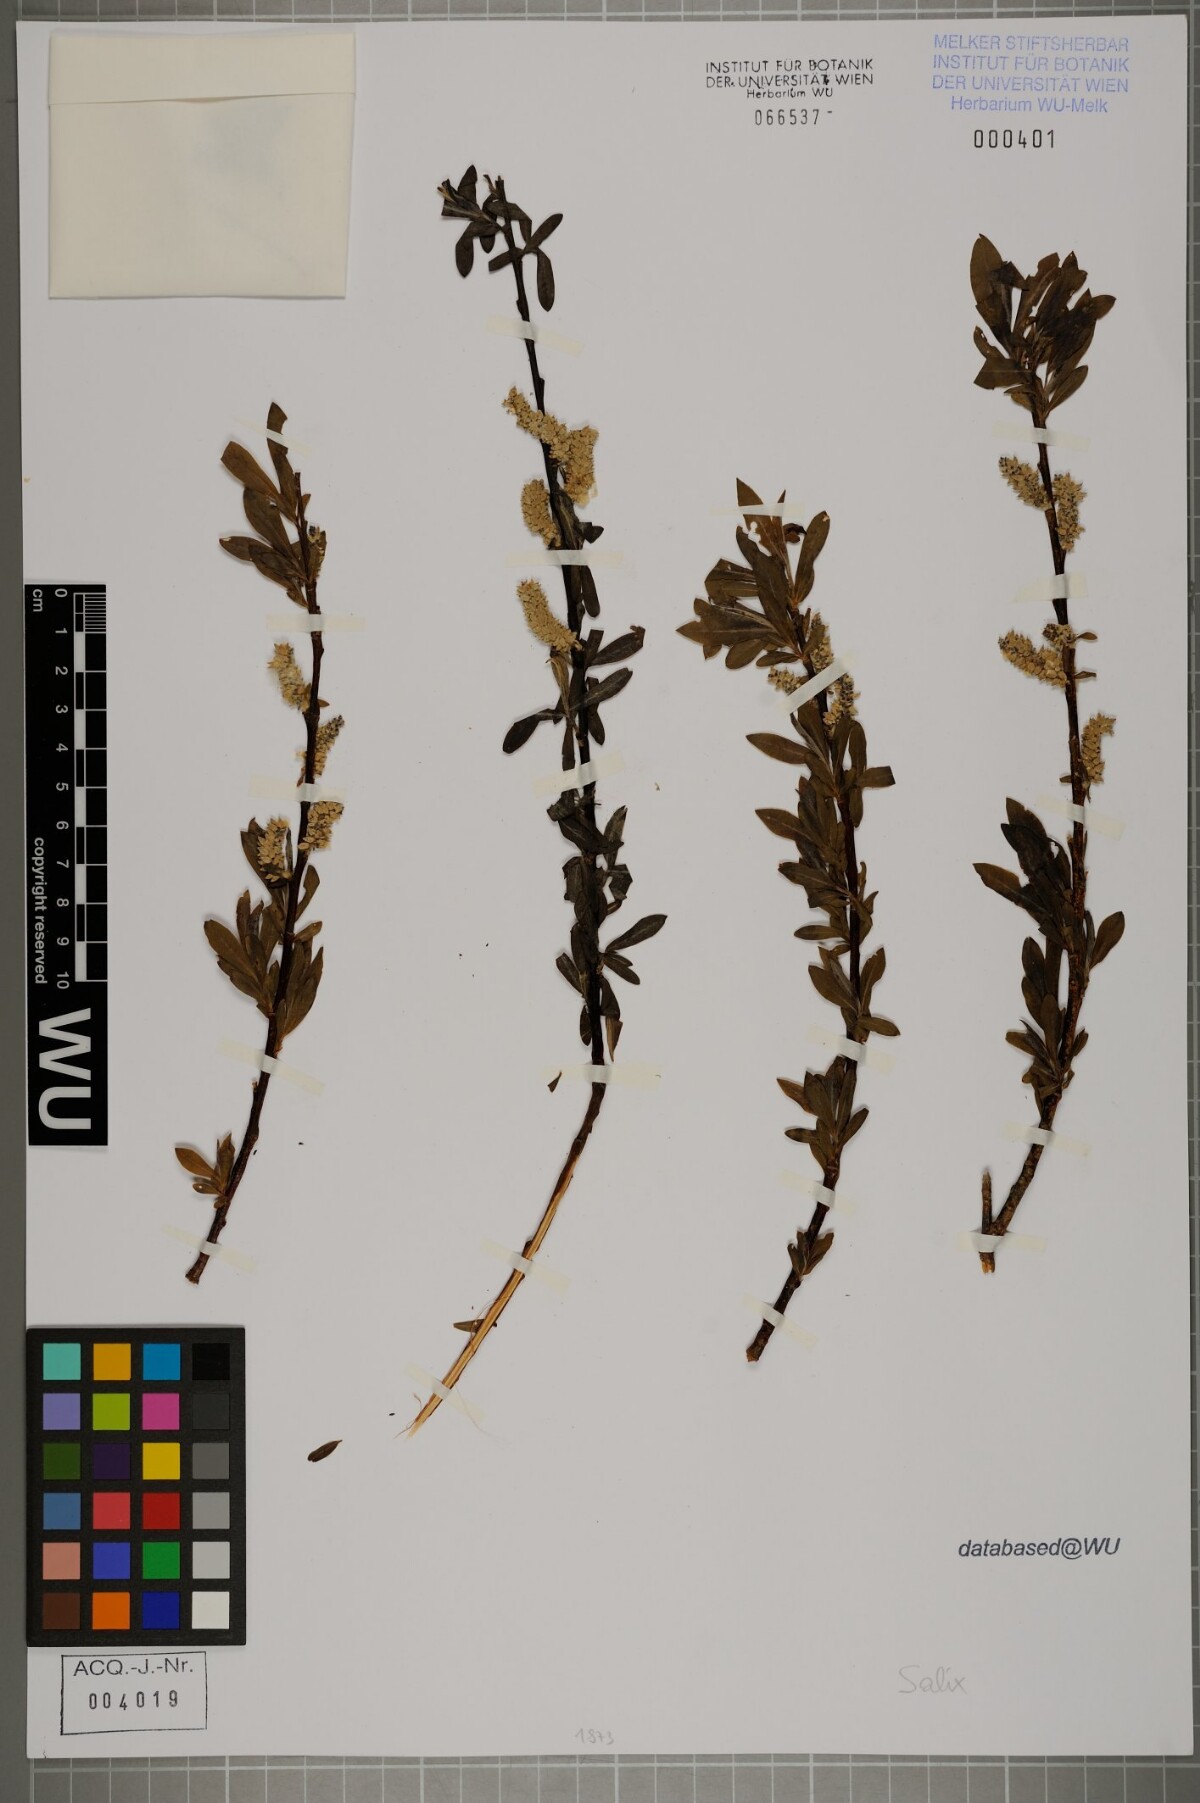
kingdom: Plantae
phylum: Tracheophyta
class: Magnoliopsida
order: Malpighiales
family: Salicaceae
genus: Salix
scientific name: Salix
